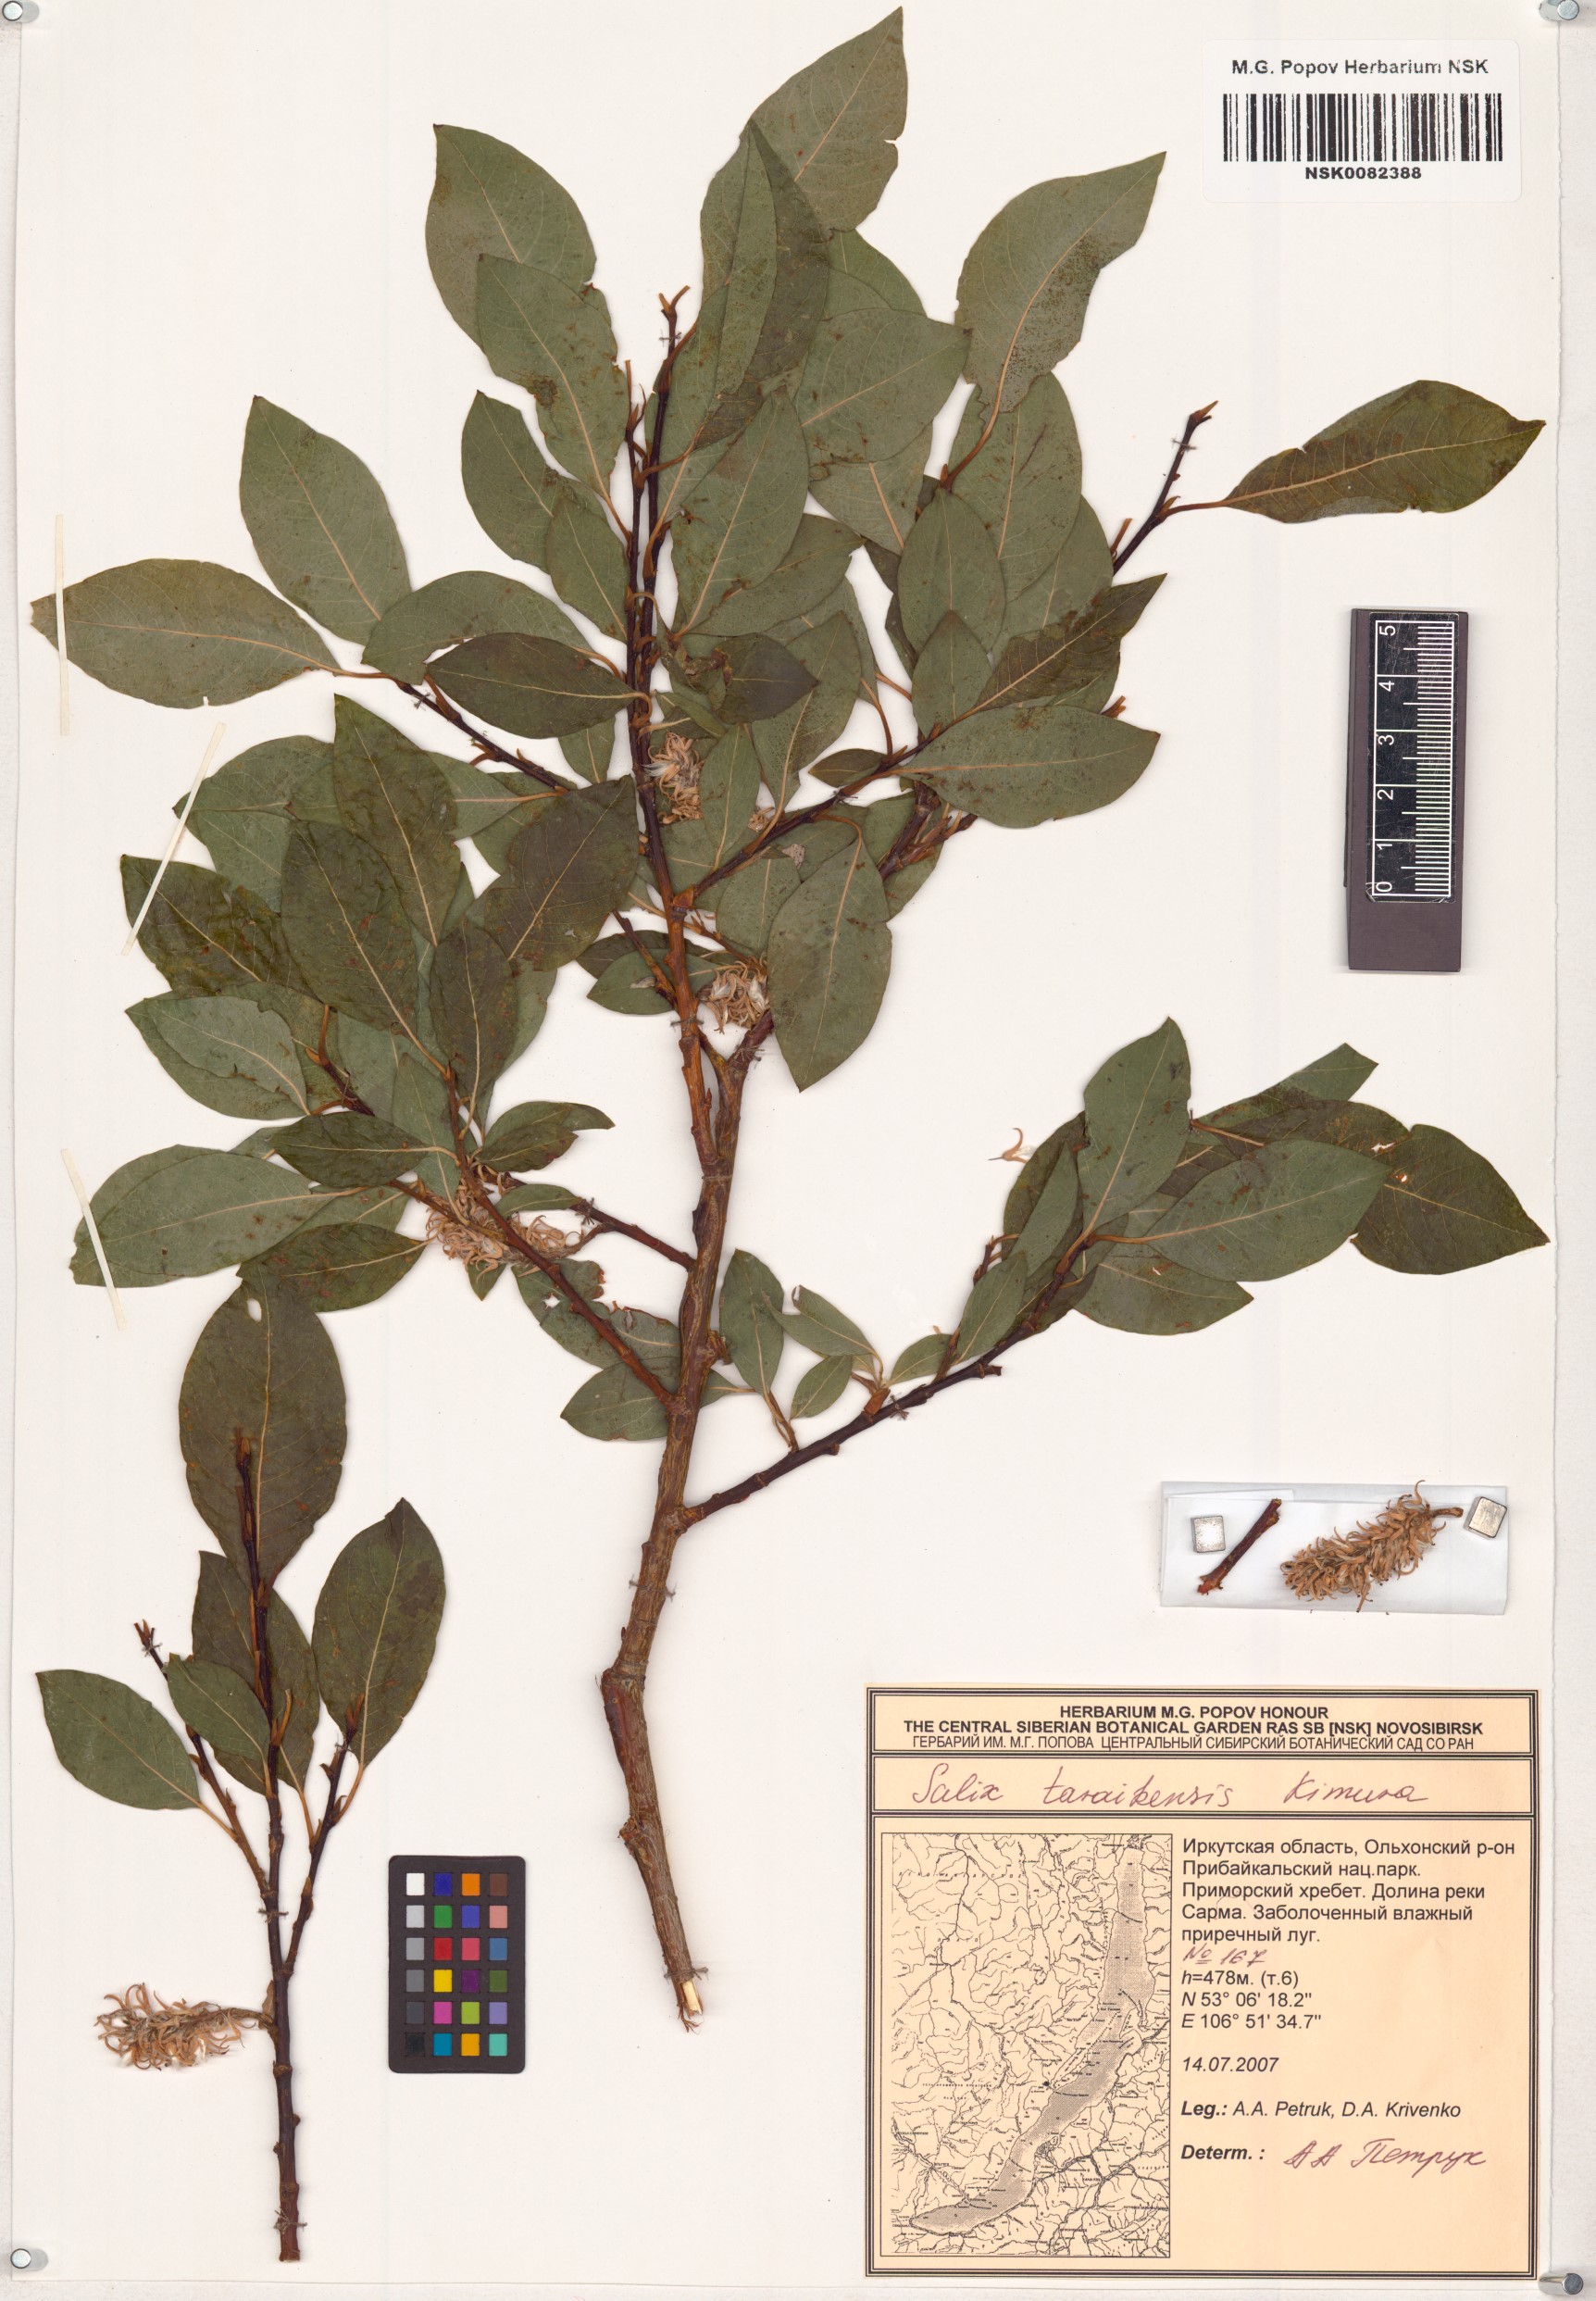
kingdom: Plantae
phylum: Tracheophyta
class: Magnoliopsida
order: Malpighiales
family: Salicaceae
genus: Salix
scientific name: Salix taraikensis
